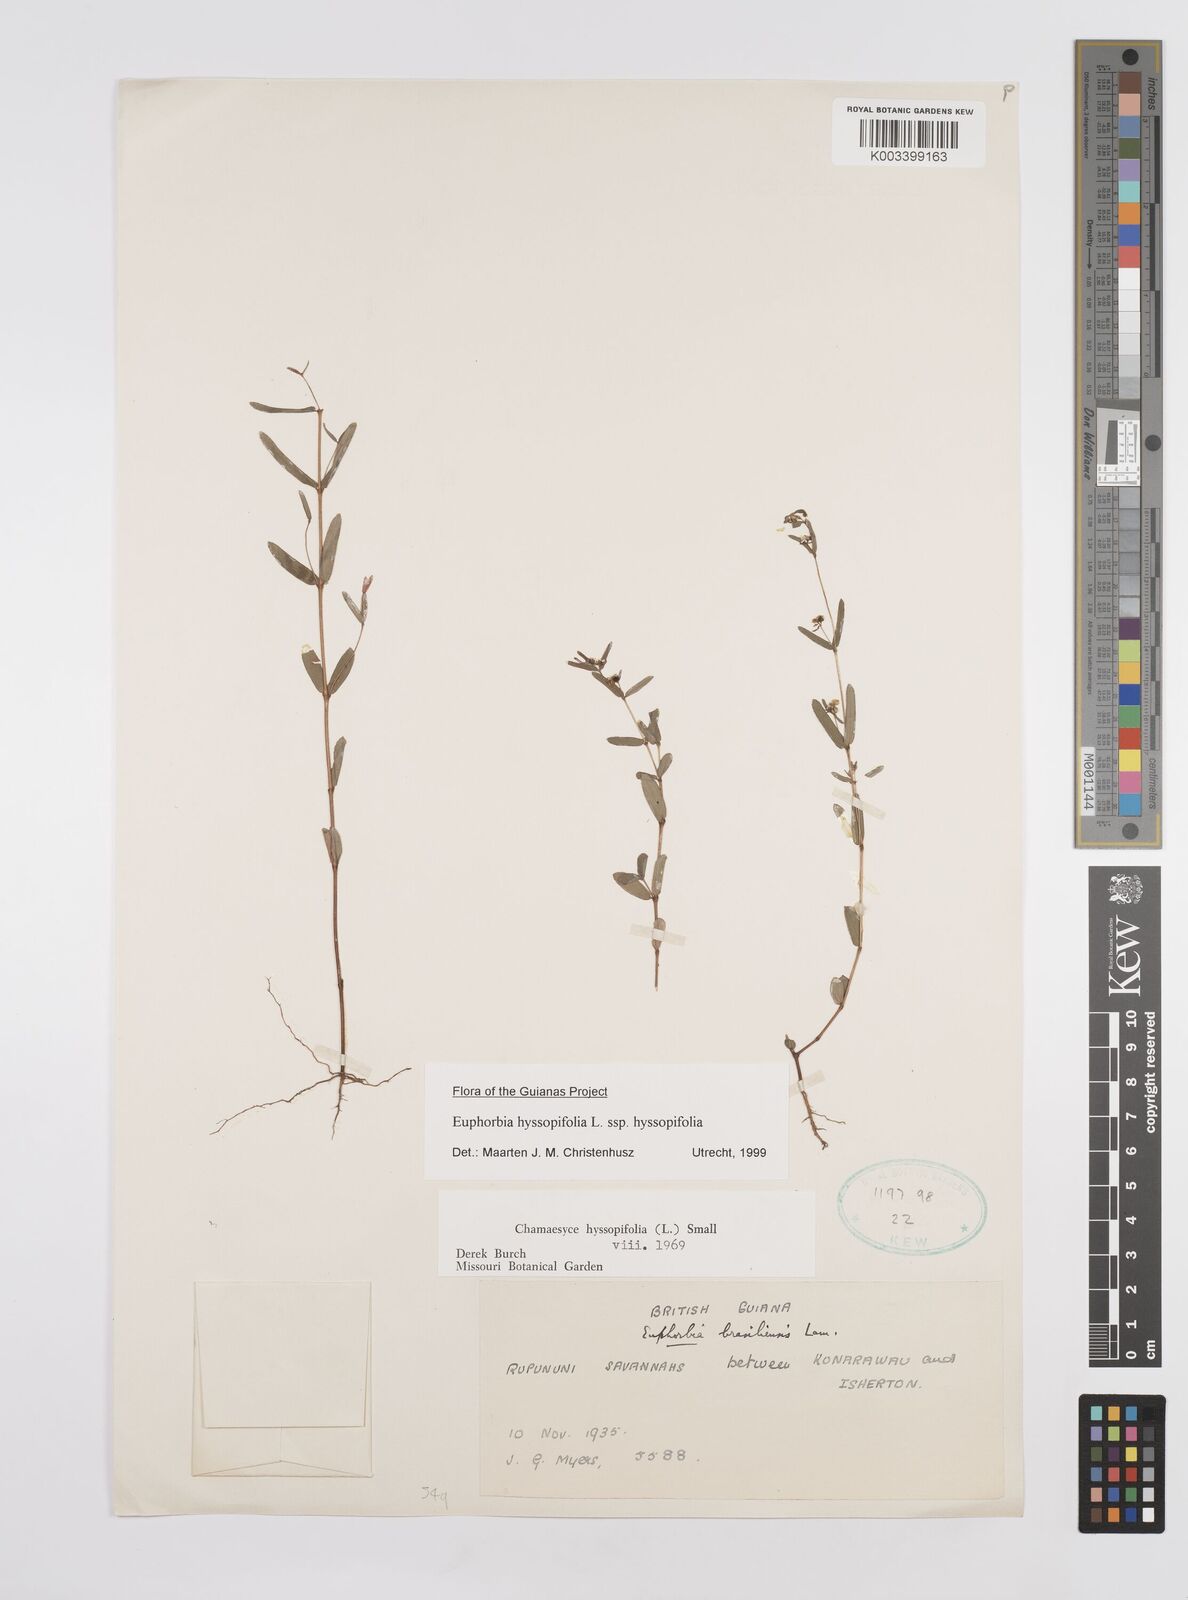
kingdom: Plantae
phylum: Tracheophyta
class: Magnoliopsida
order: Malpighiales
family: Euphorbiaceae
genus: Euphorbia
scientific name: Euphorbia hyssopifolia
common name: Hyssopleaf sandmat
